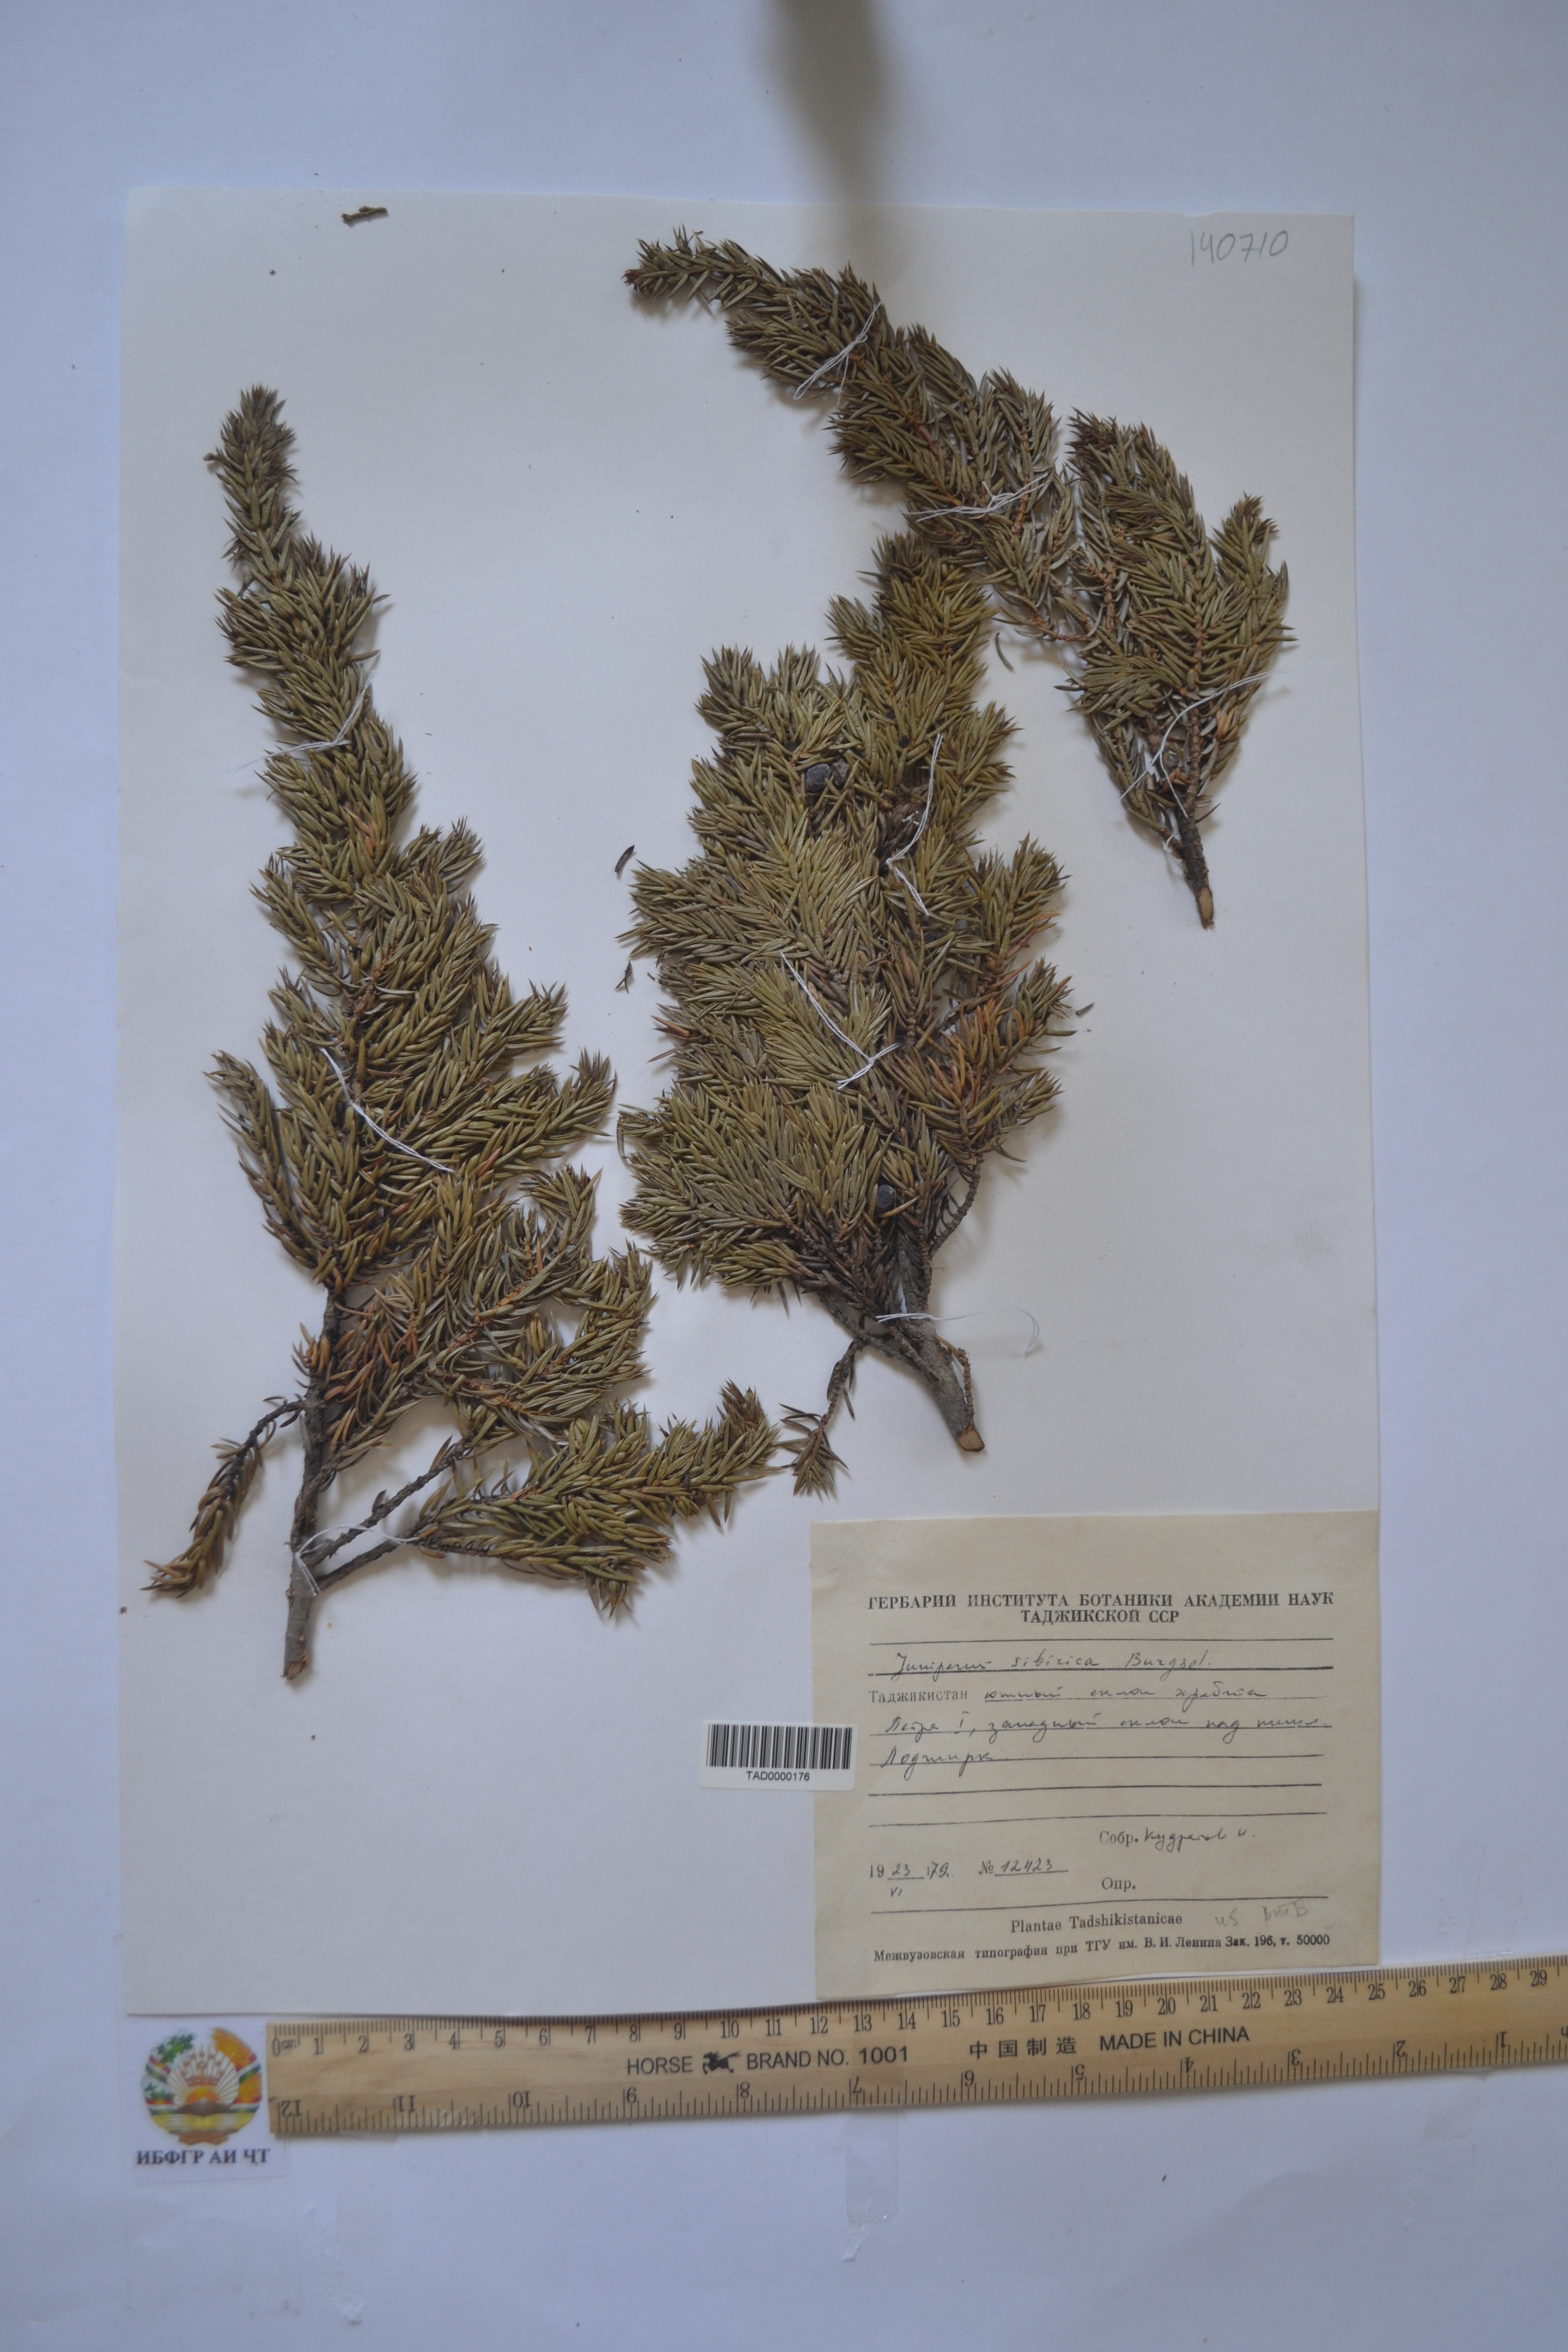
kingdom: Plantae
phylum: Tracheophyta
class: Pinopsida
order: Pinales
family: Cupressaceae
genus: Juniperus
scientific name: Juniperus communis
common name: Common juniper
